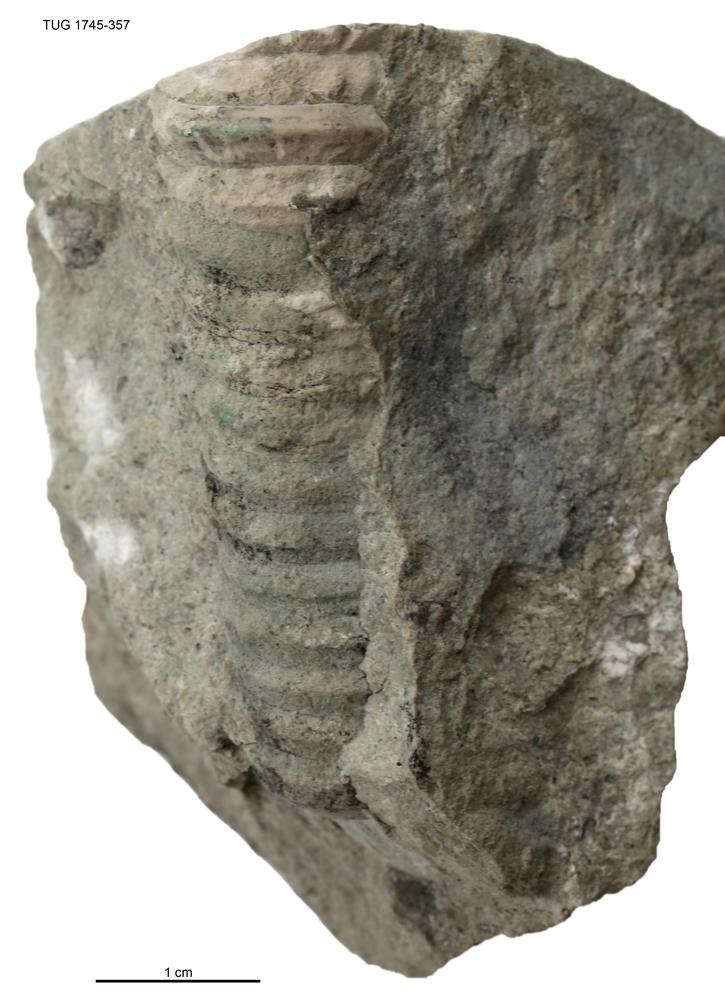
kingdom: Animalia
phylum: Mollusca
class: Cephalopoda
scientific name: Cephalopoda
